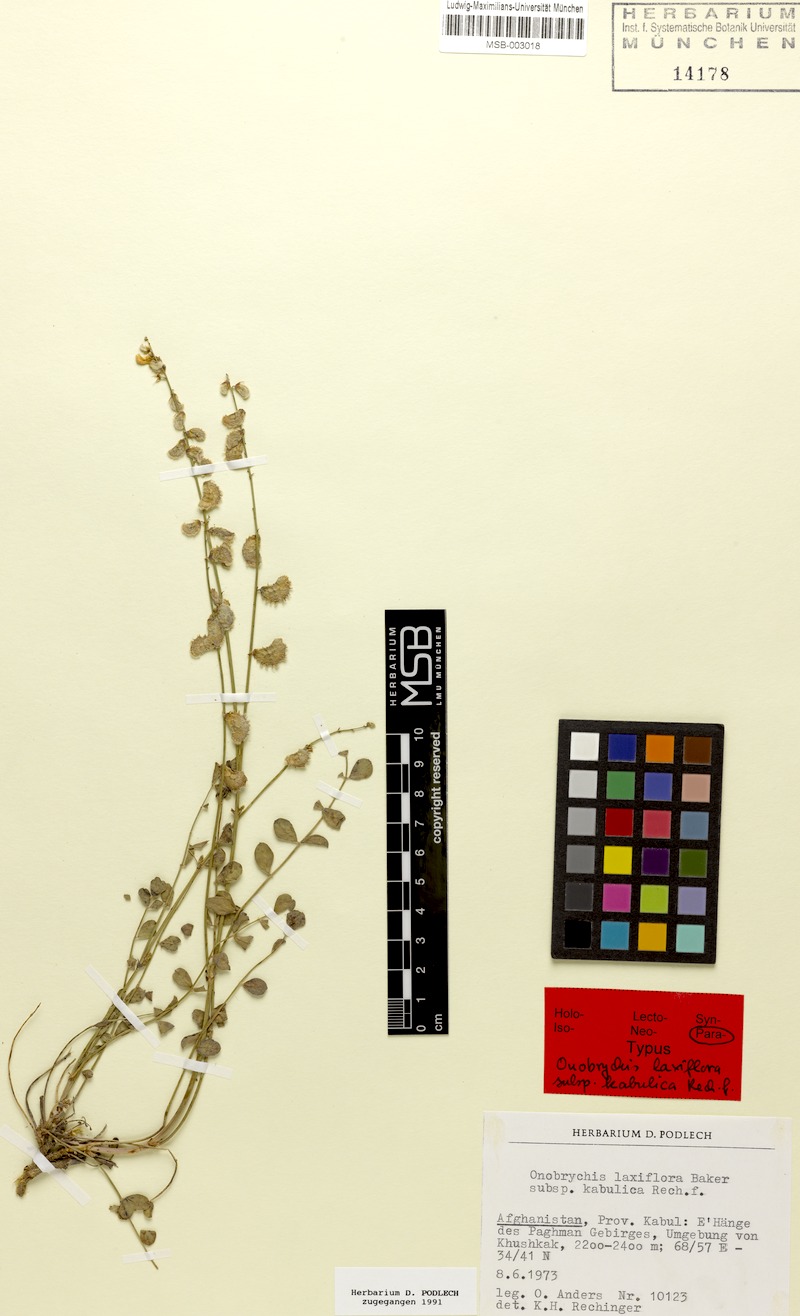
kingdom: Plantae
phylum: Tracheophyta
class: Magnoliopsida
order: Fabales
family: Fabaceae
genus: Onobrychis
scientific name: Onobrychis laxiflora
